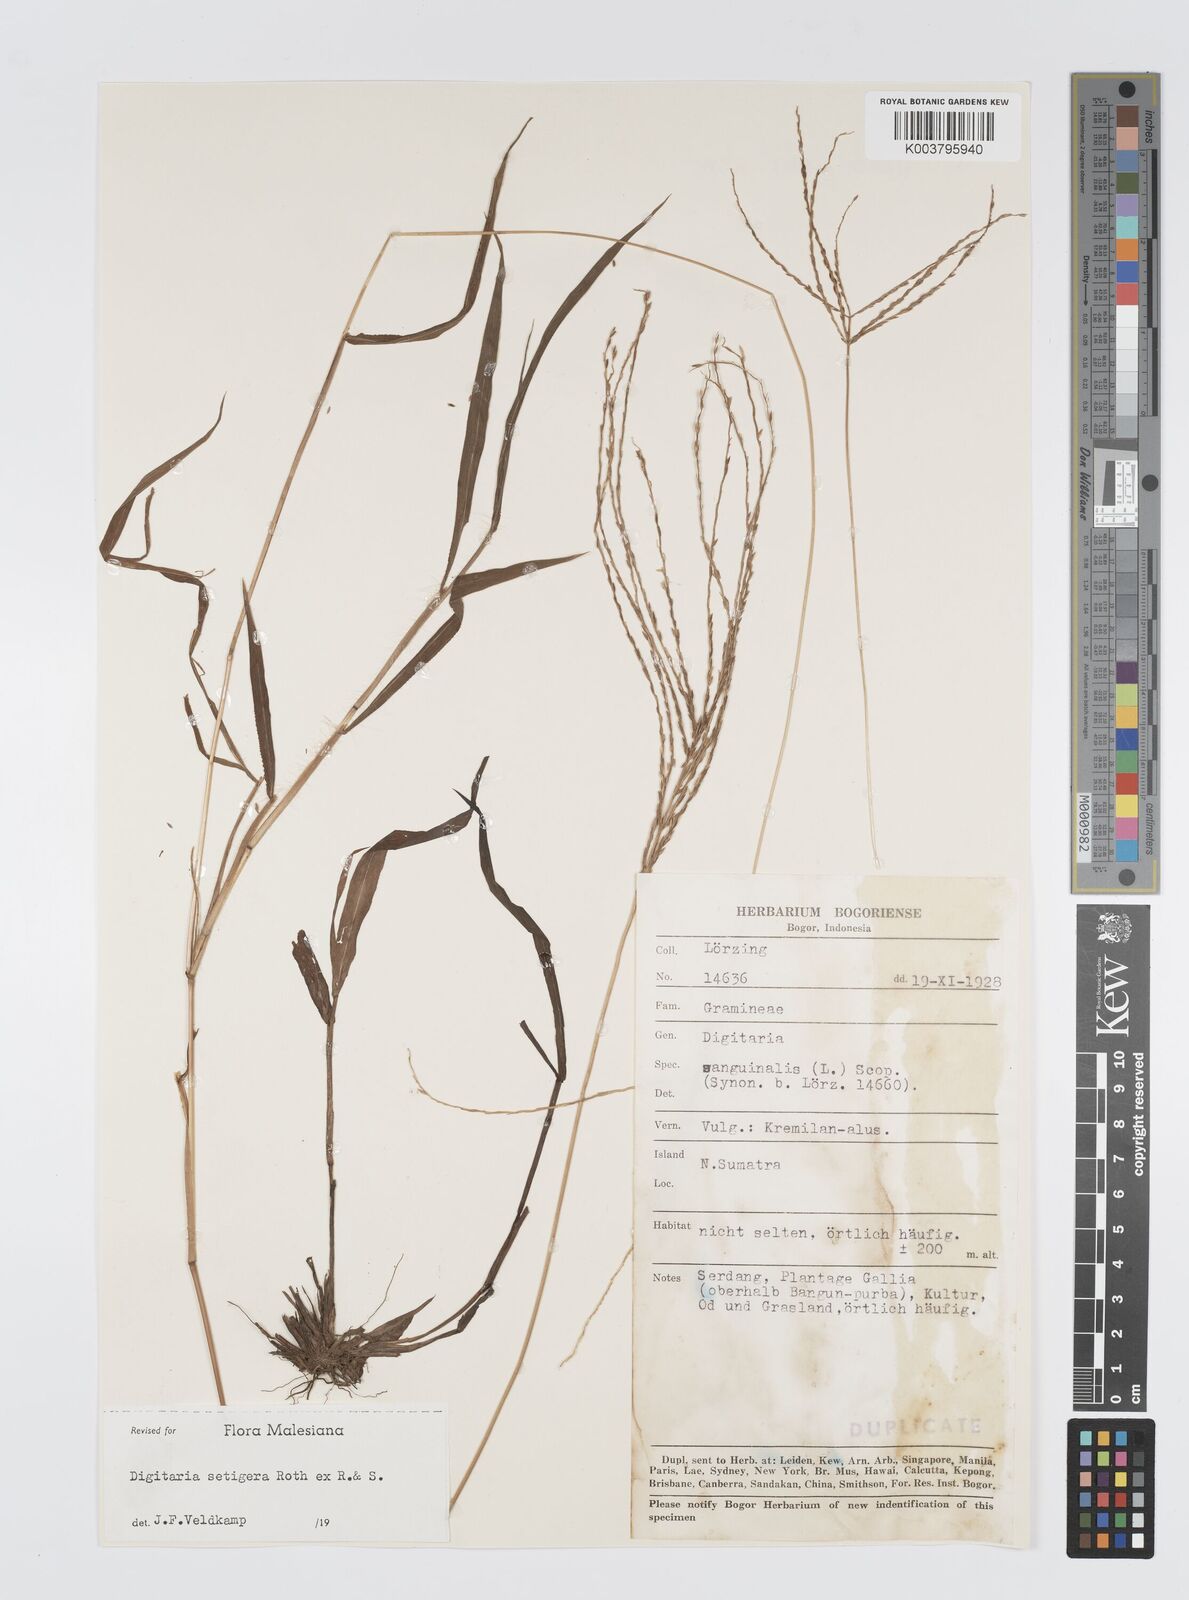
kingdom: Plantae
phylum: Tracheophyta
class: Liliopsida
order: Poales
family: Poaceae
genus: Digitaria
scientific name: Digitaria setigera
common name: East indian crabgrass
